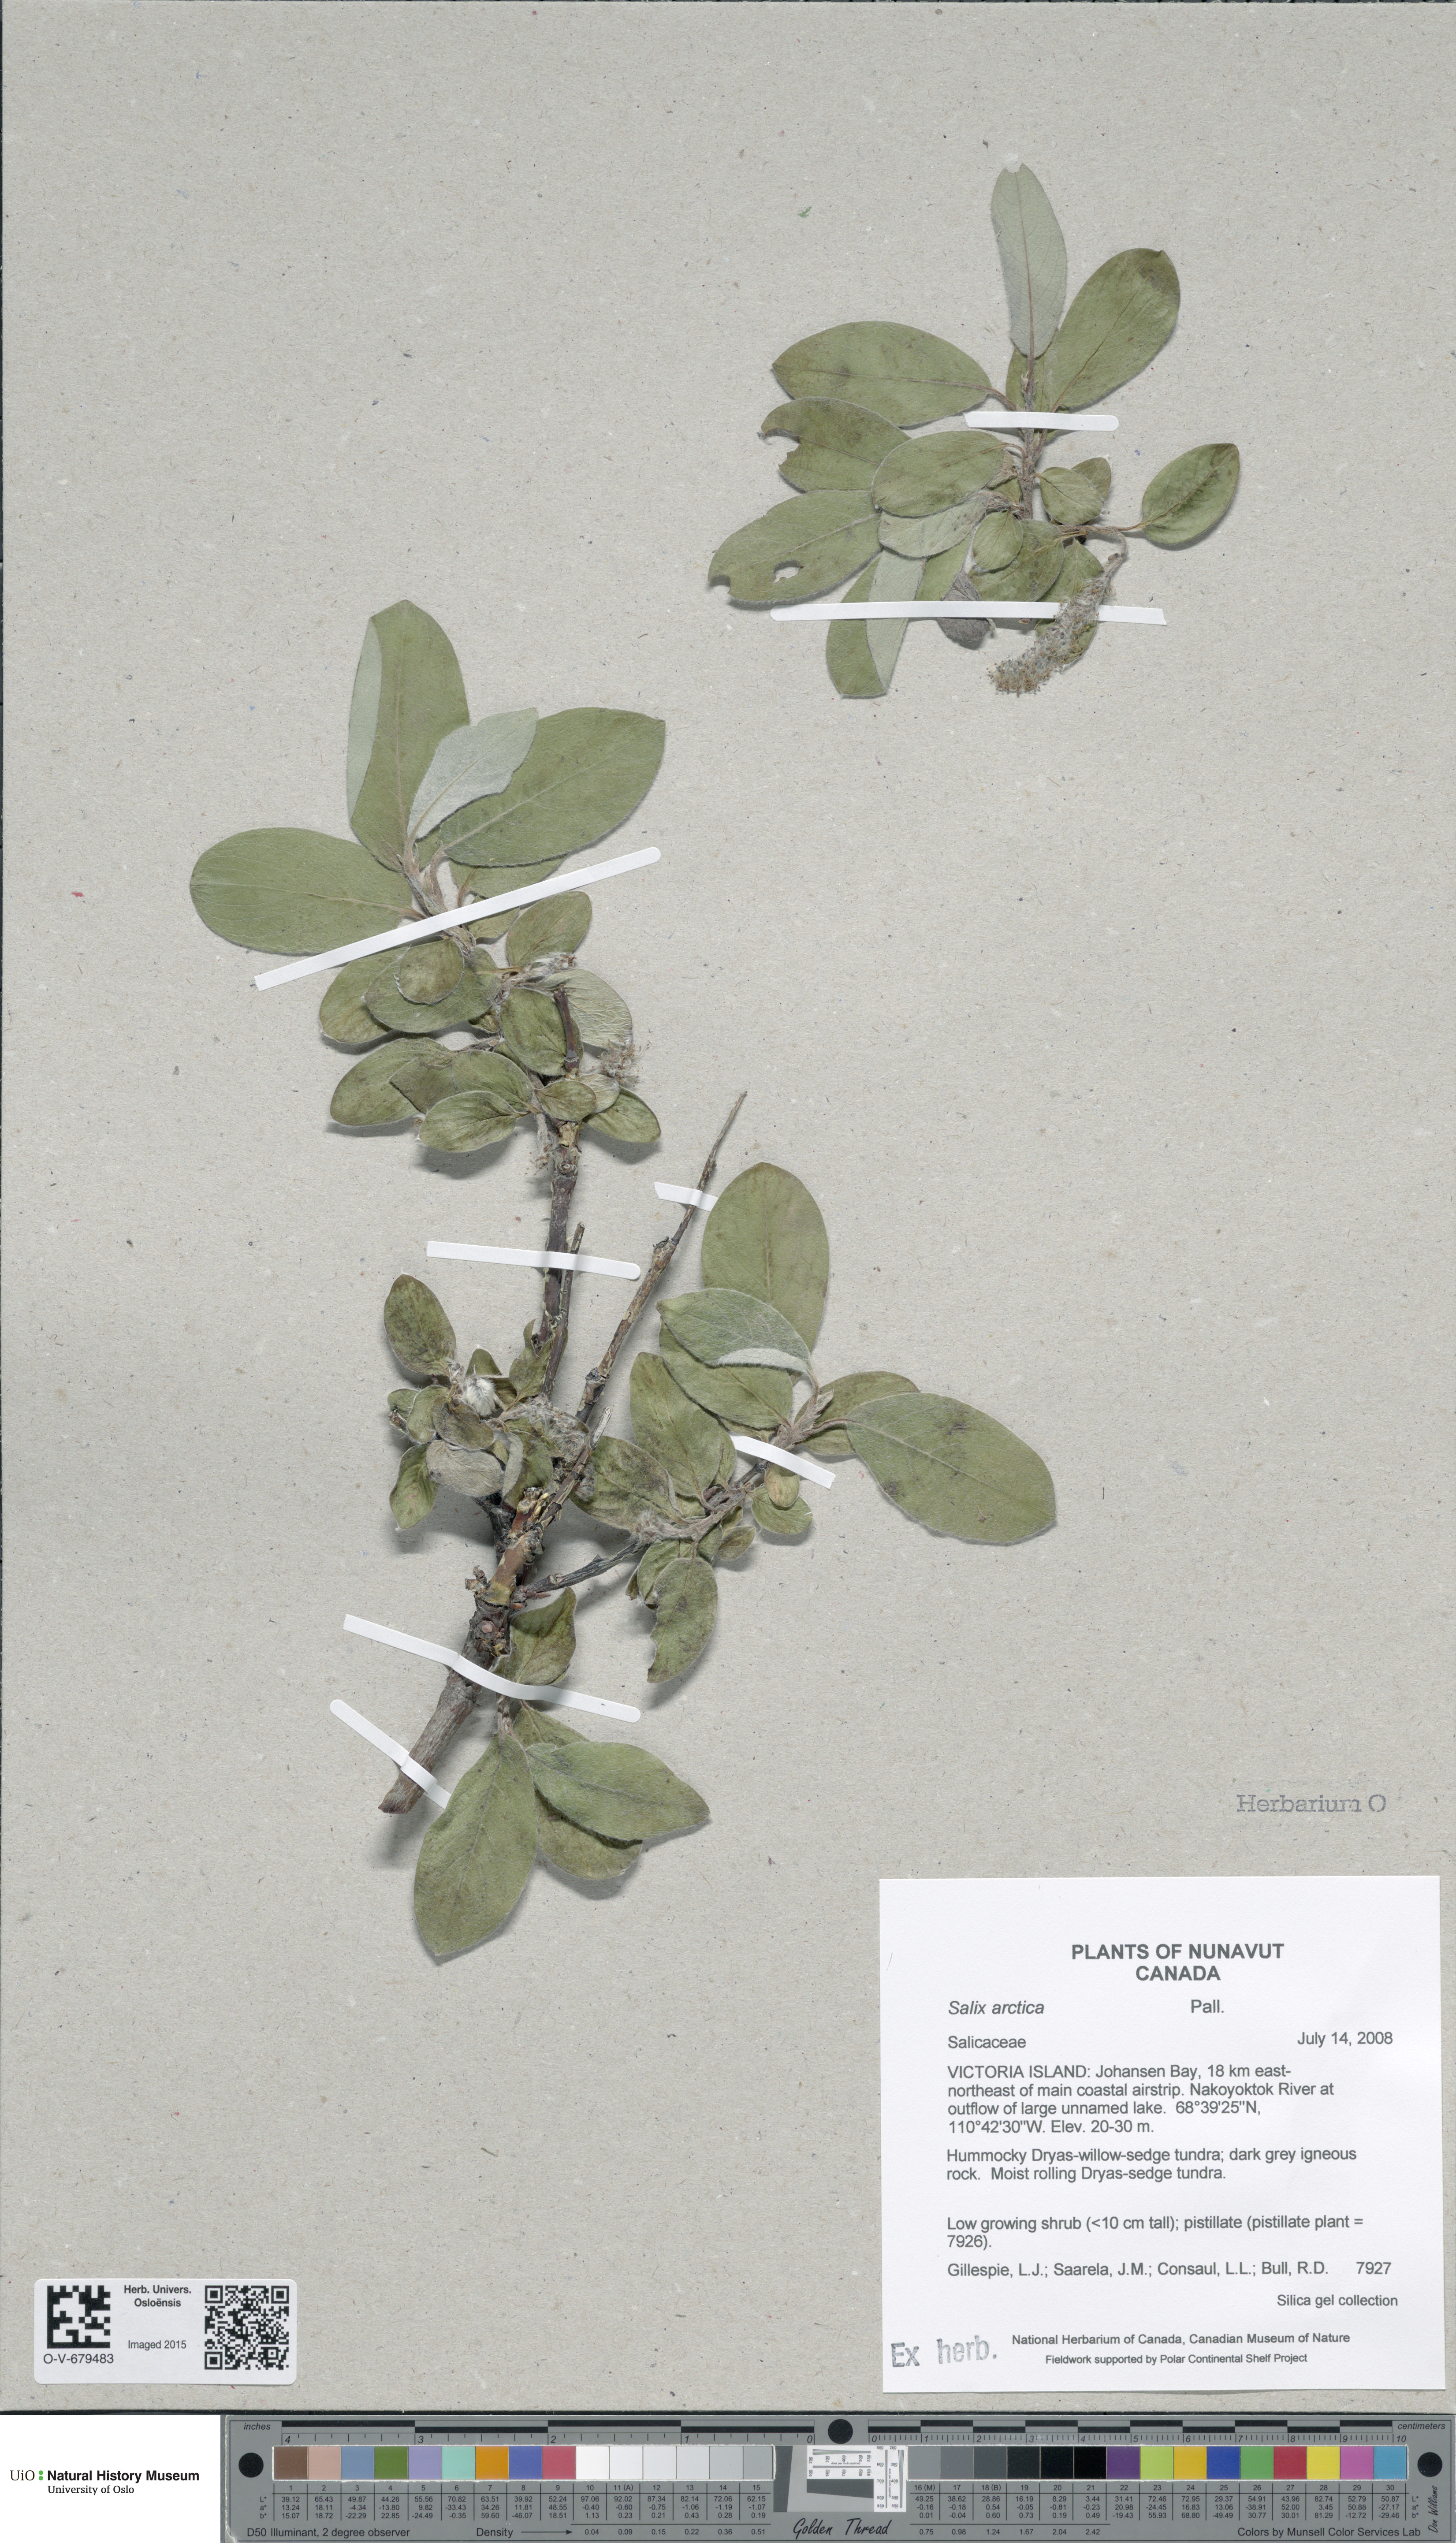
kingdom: Plantae
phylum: Tracheophyta
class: Magnoliopsida
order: Malpighiales
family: Salicaceae
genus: Salix
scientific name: Salix arctica
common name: Arctic willow
